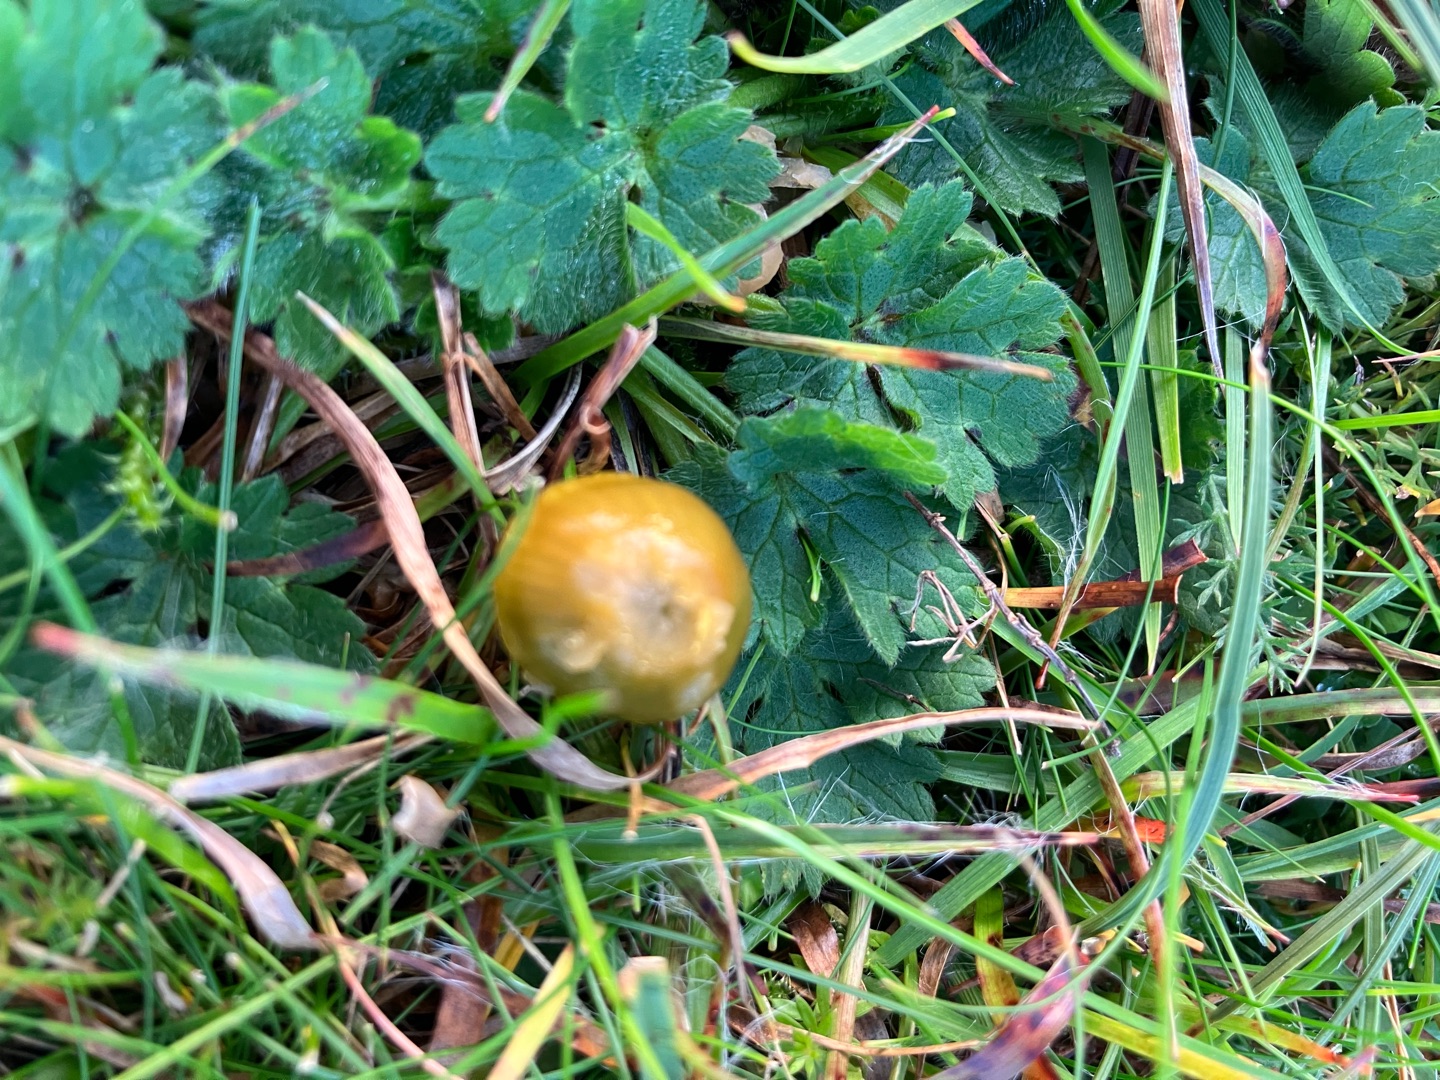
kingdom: Fungi
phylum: Basidiomycota
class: Agaricomycetes
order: Agaricales
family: Hygrophoraceae
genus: Gliophorus
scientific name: Gliophorus psittacinus
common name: Papegøje-vokshat
